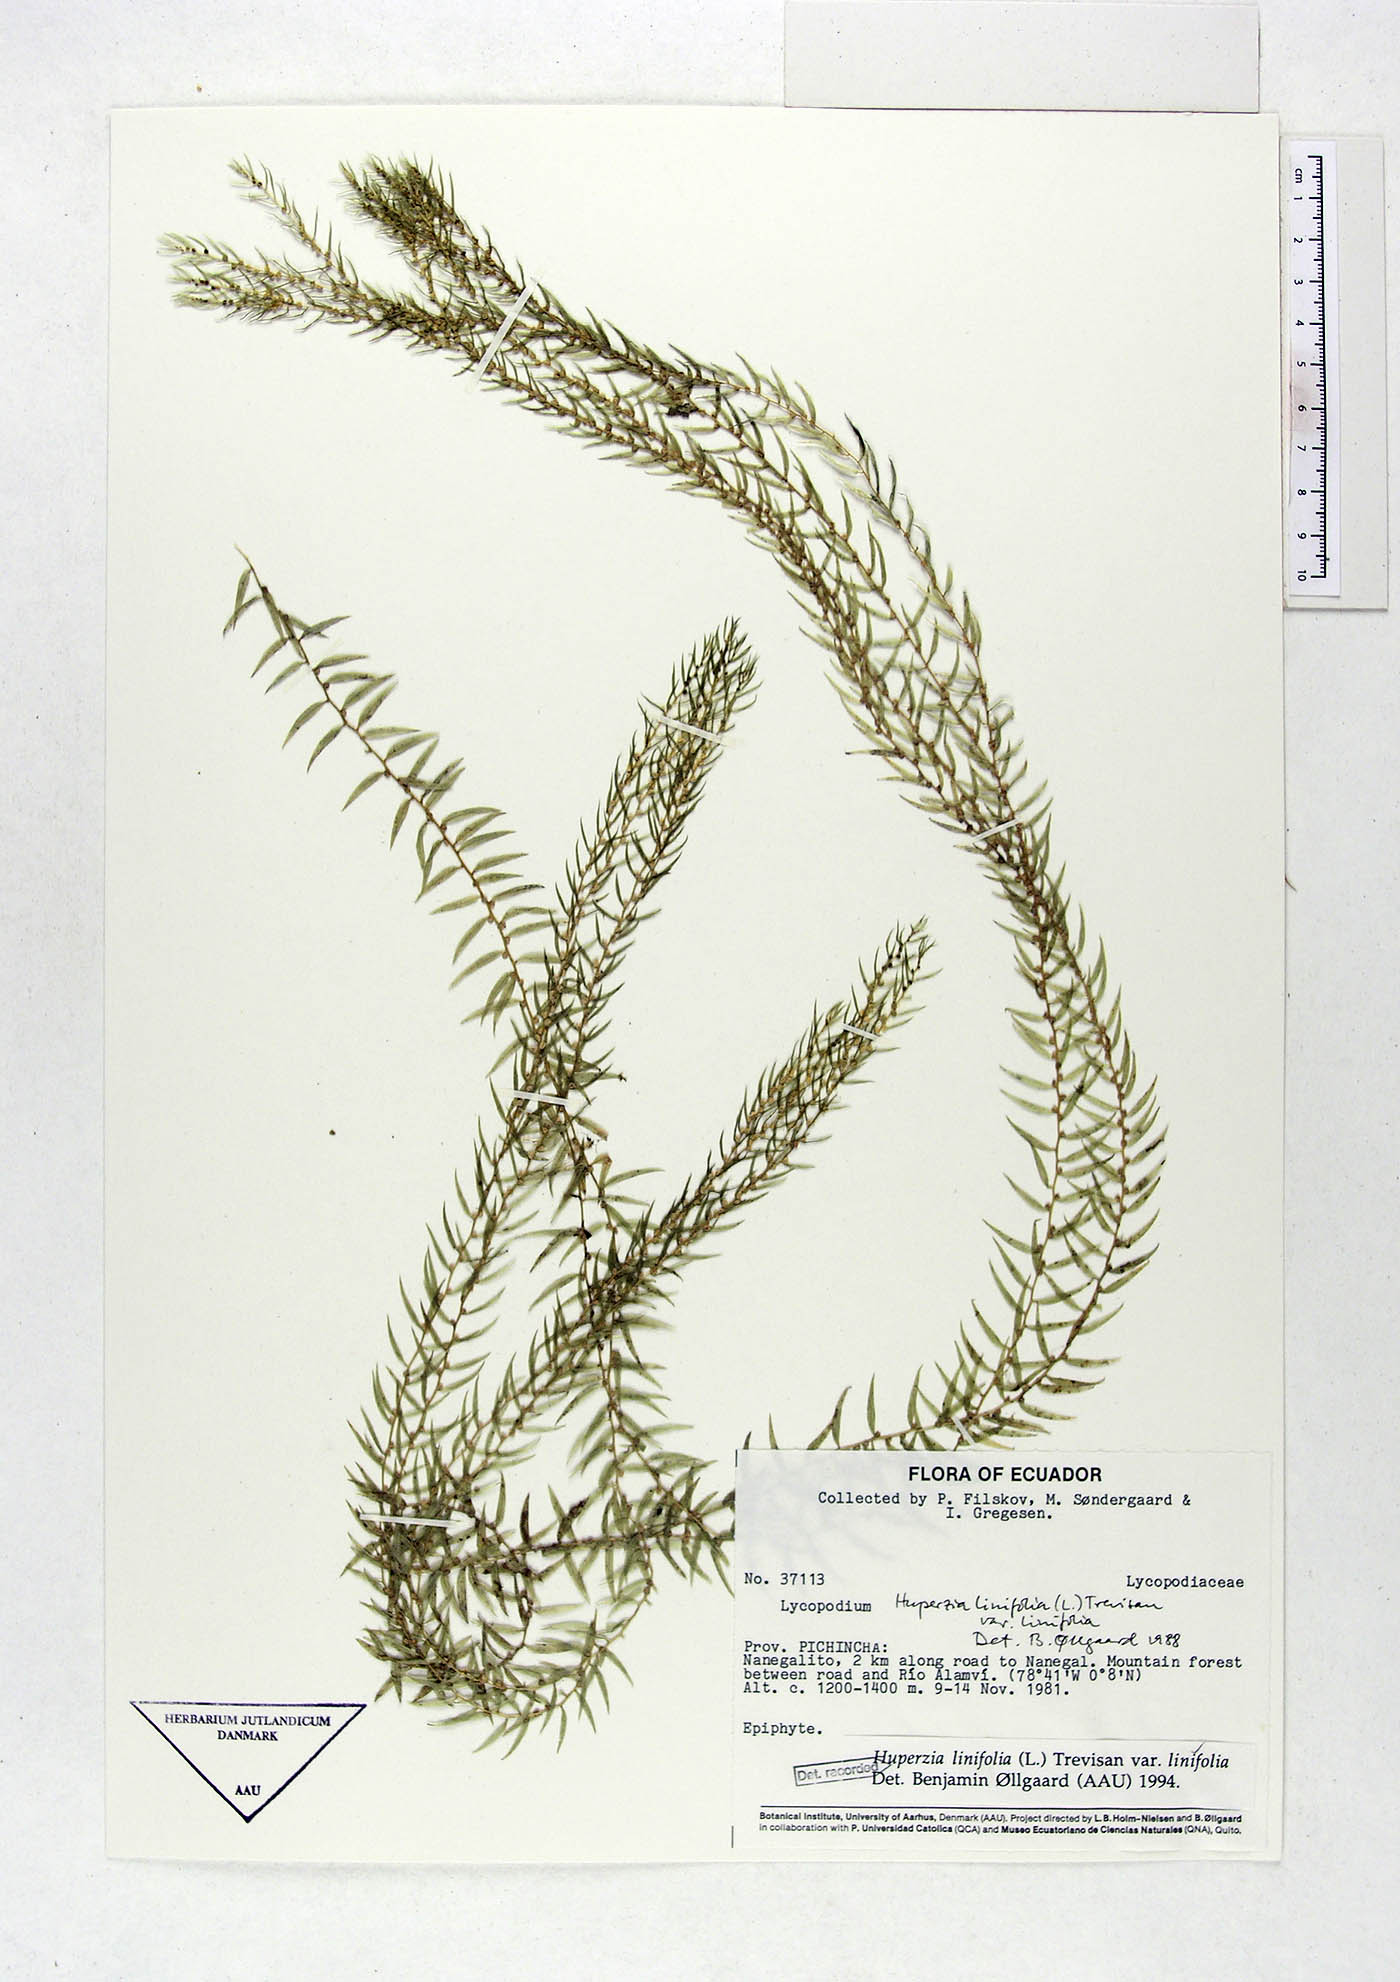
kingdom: Plantae
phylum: Tracheophyta
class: Lycopodiopsida
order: Lycopodiales
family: Lycopodiaceae
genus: Phlegmariurus
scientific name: Phlegmariurus linifolius
